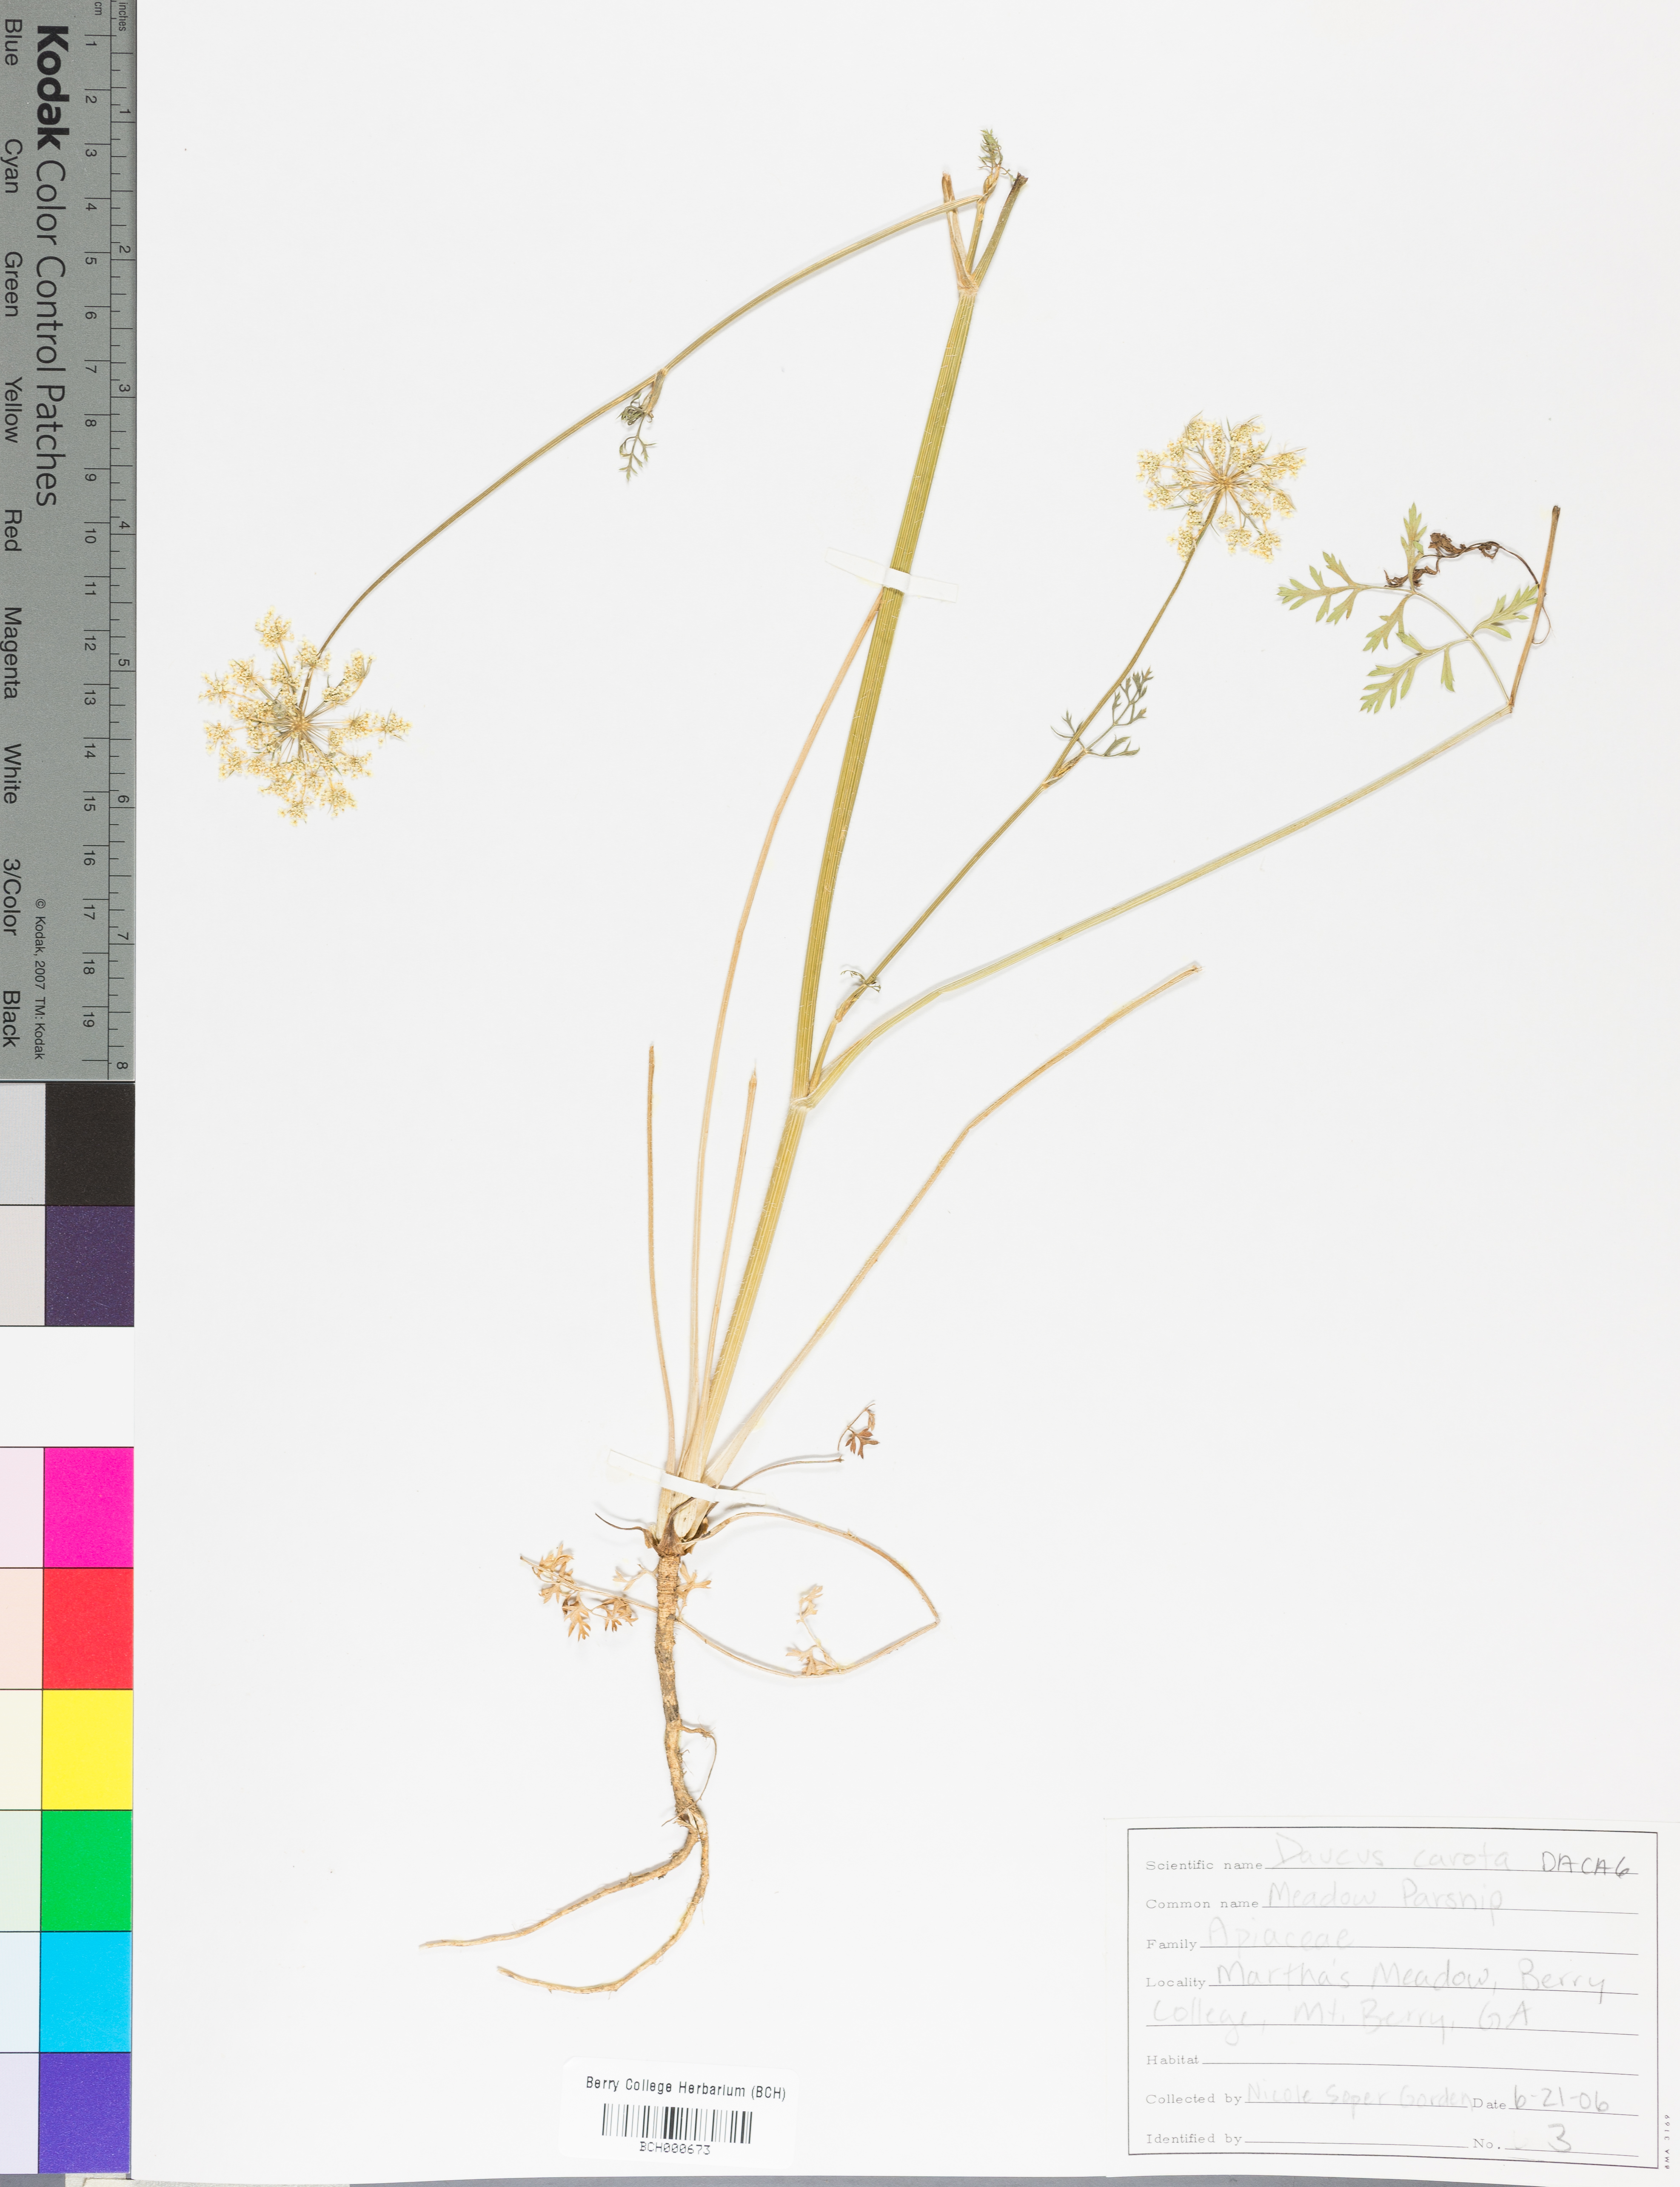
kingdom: Plantae
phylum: Tracheophyta
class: Magnoliopsida
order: Apiales
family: Apiaceae
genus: Daucus
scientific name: Daucus carota
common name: Wild carrot
